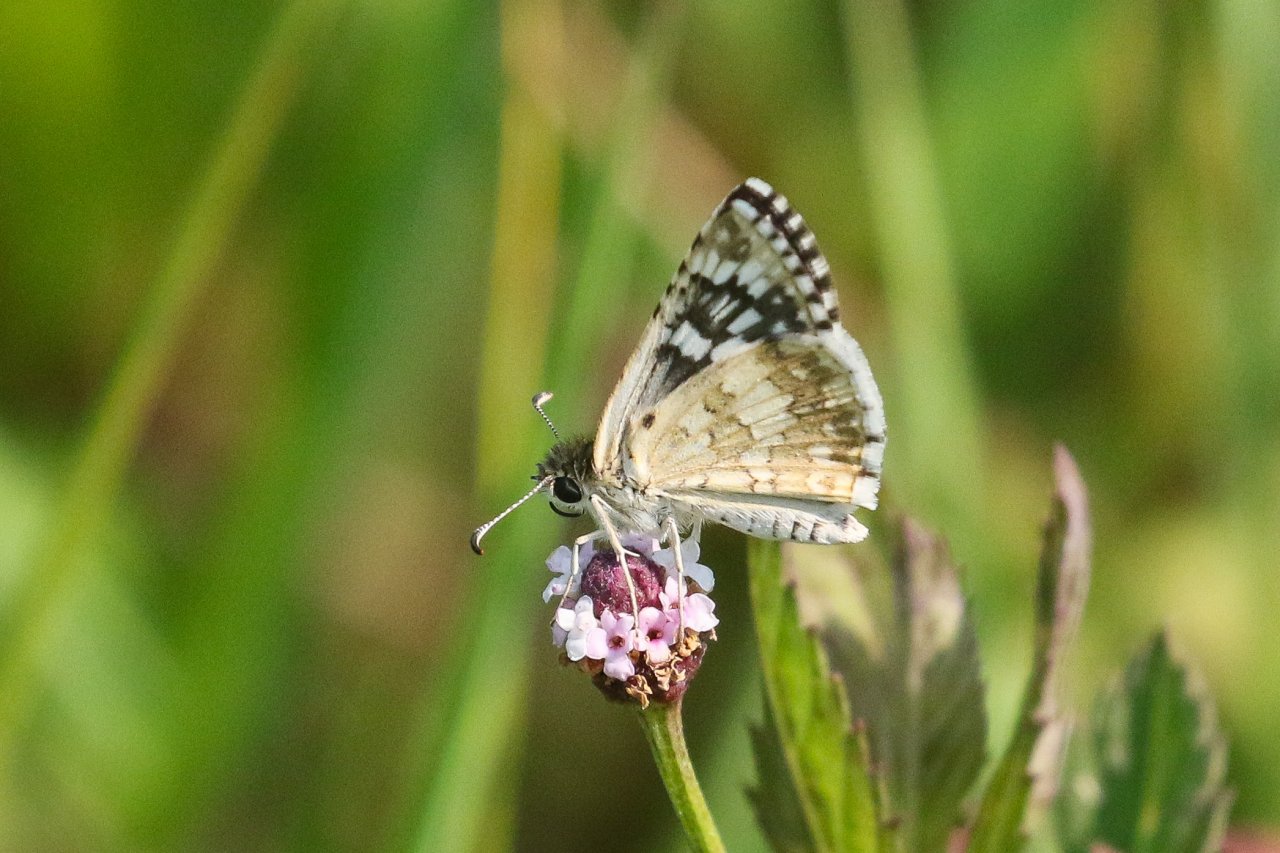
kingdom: Animalia
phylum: Arthropoda
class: Insecta
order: Lepidoptera
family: Hesperiidae
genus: Pyrgus
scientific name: Pyrgus communis
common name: Common Checkered-Skipper
